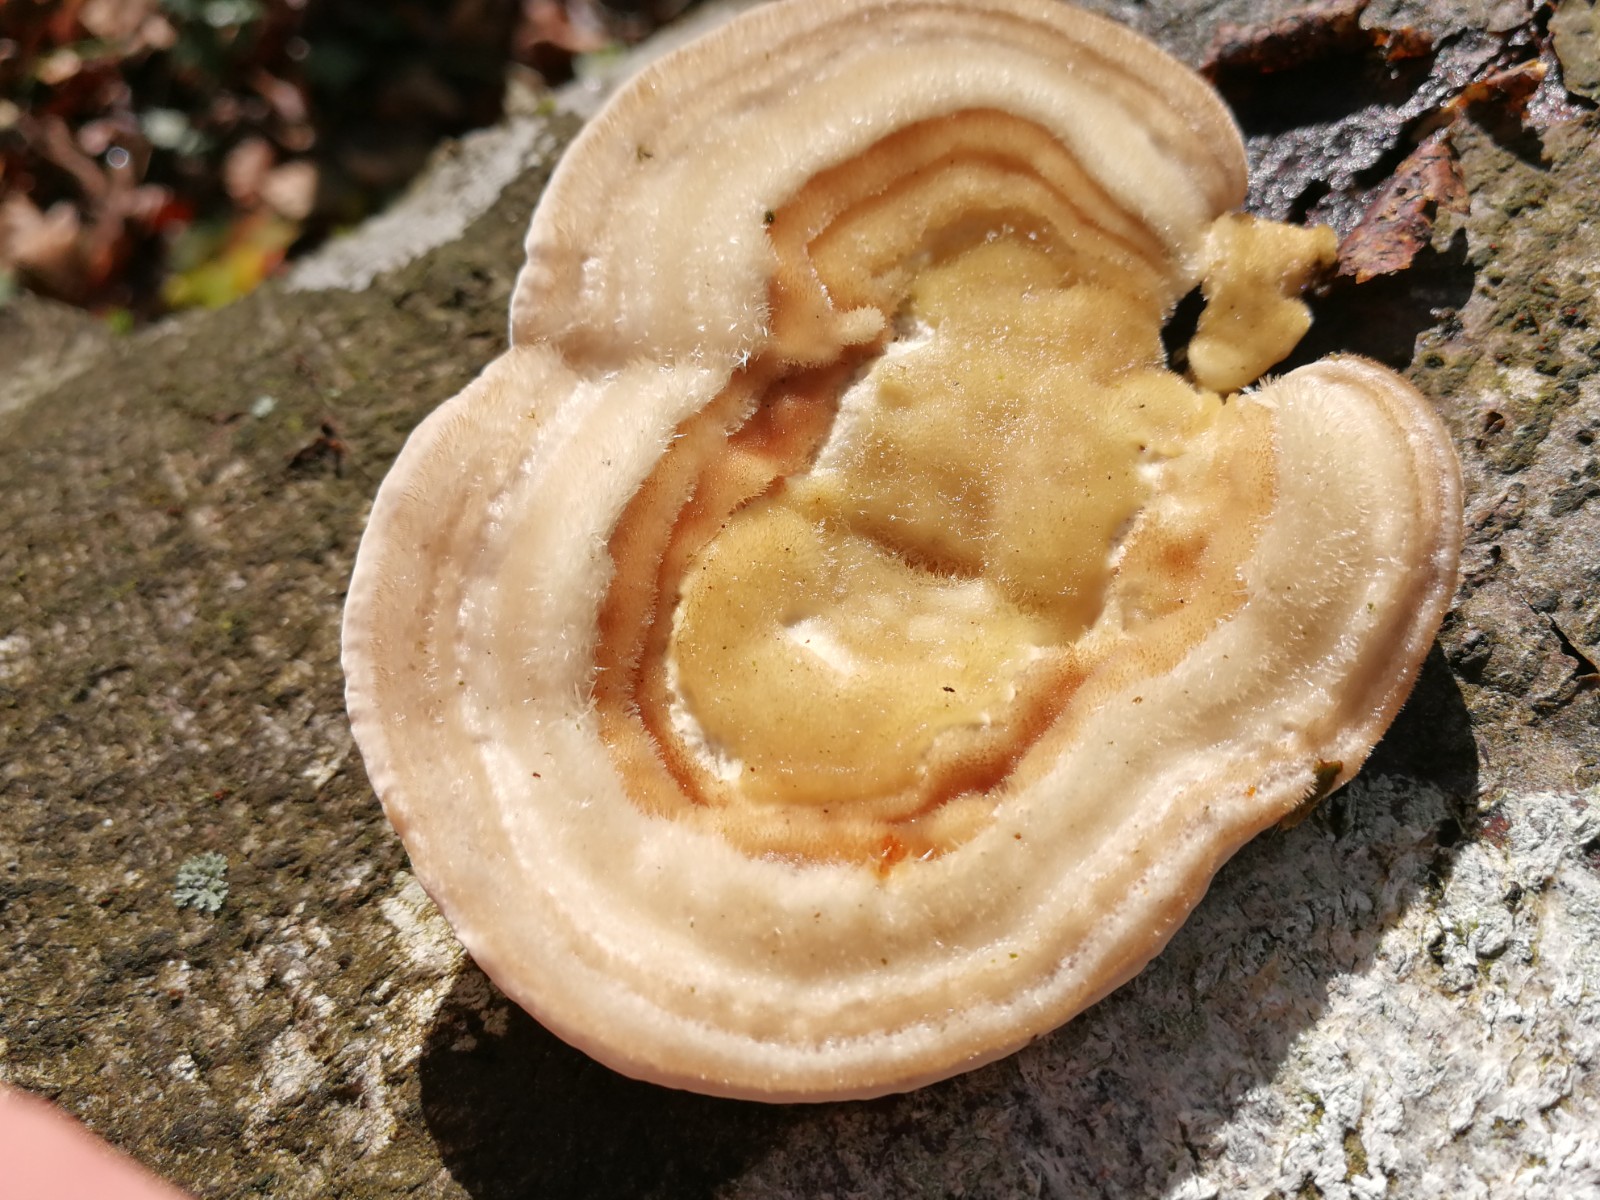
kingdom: Fungi
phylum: Basidiomycota
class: Agaricomycetes
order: Polyporales
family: Polyporaceae
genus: Trametes
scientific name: Trametes hirsuta
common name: håret læderporesvamp
